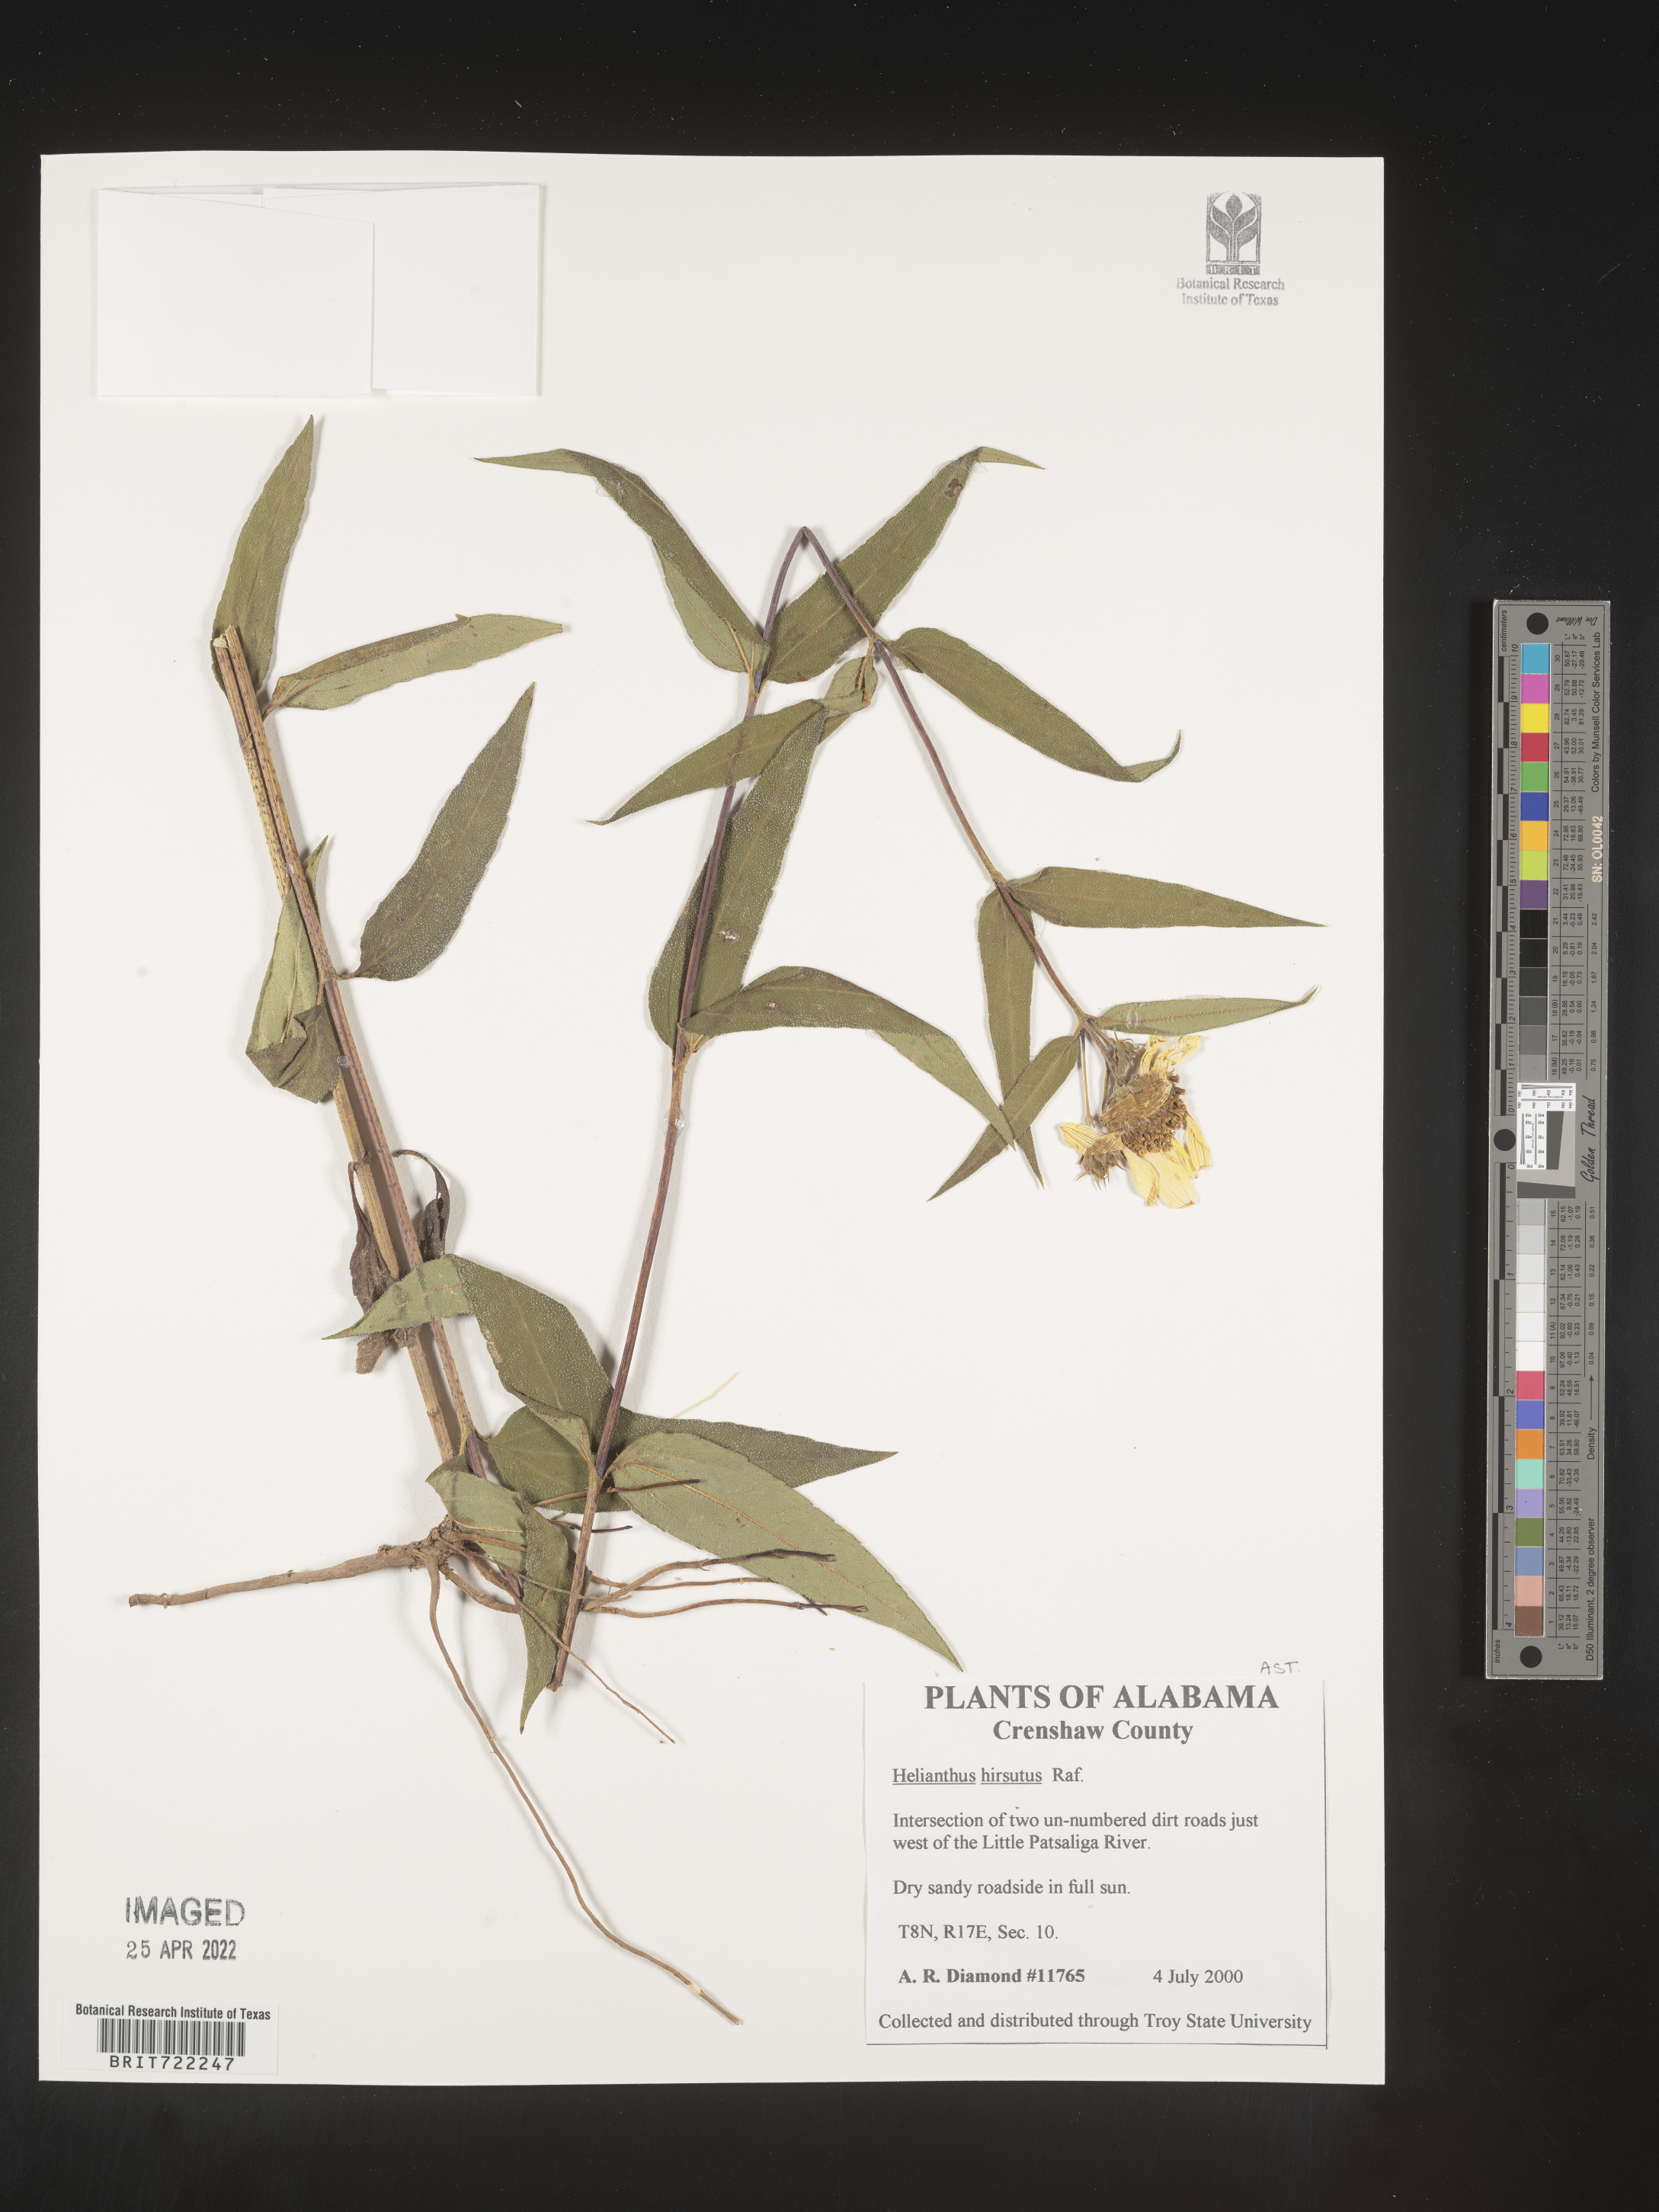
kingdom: Plantae
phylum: Tracheophyta
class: Magnoliopsida
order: Asterales
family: Asteraceae
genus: Helianthus
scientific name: Helianthus hirsutus
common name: Hairy sunflower
